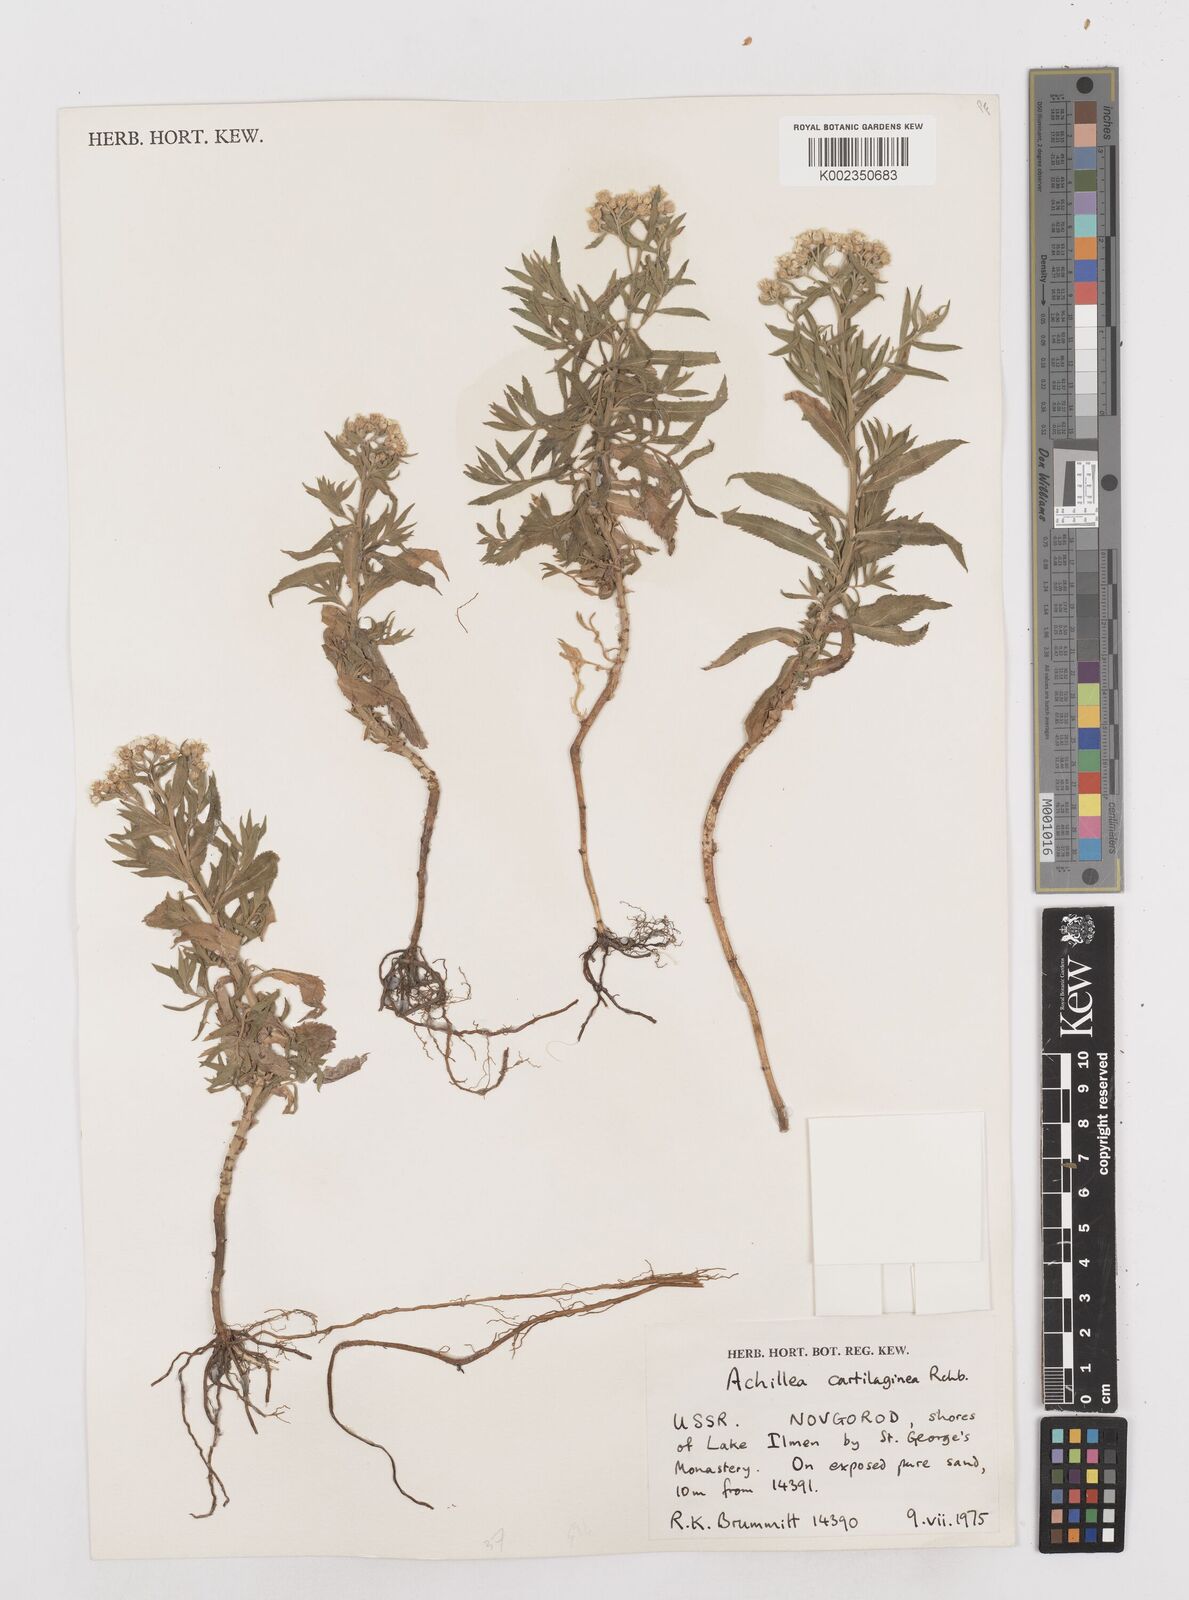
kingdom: Plantae
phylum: Tracheophyta
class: Magnoliopsida
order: Asterales
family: Asteraceae
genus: Achillea
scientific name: Achillea salicifolia
